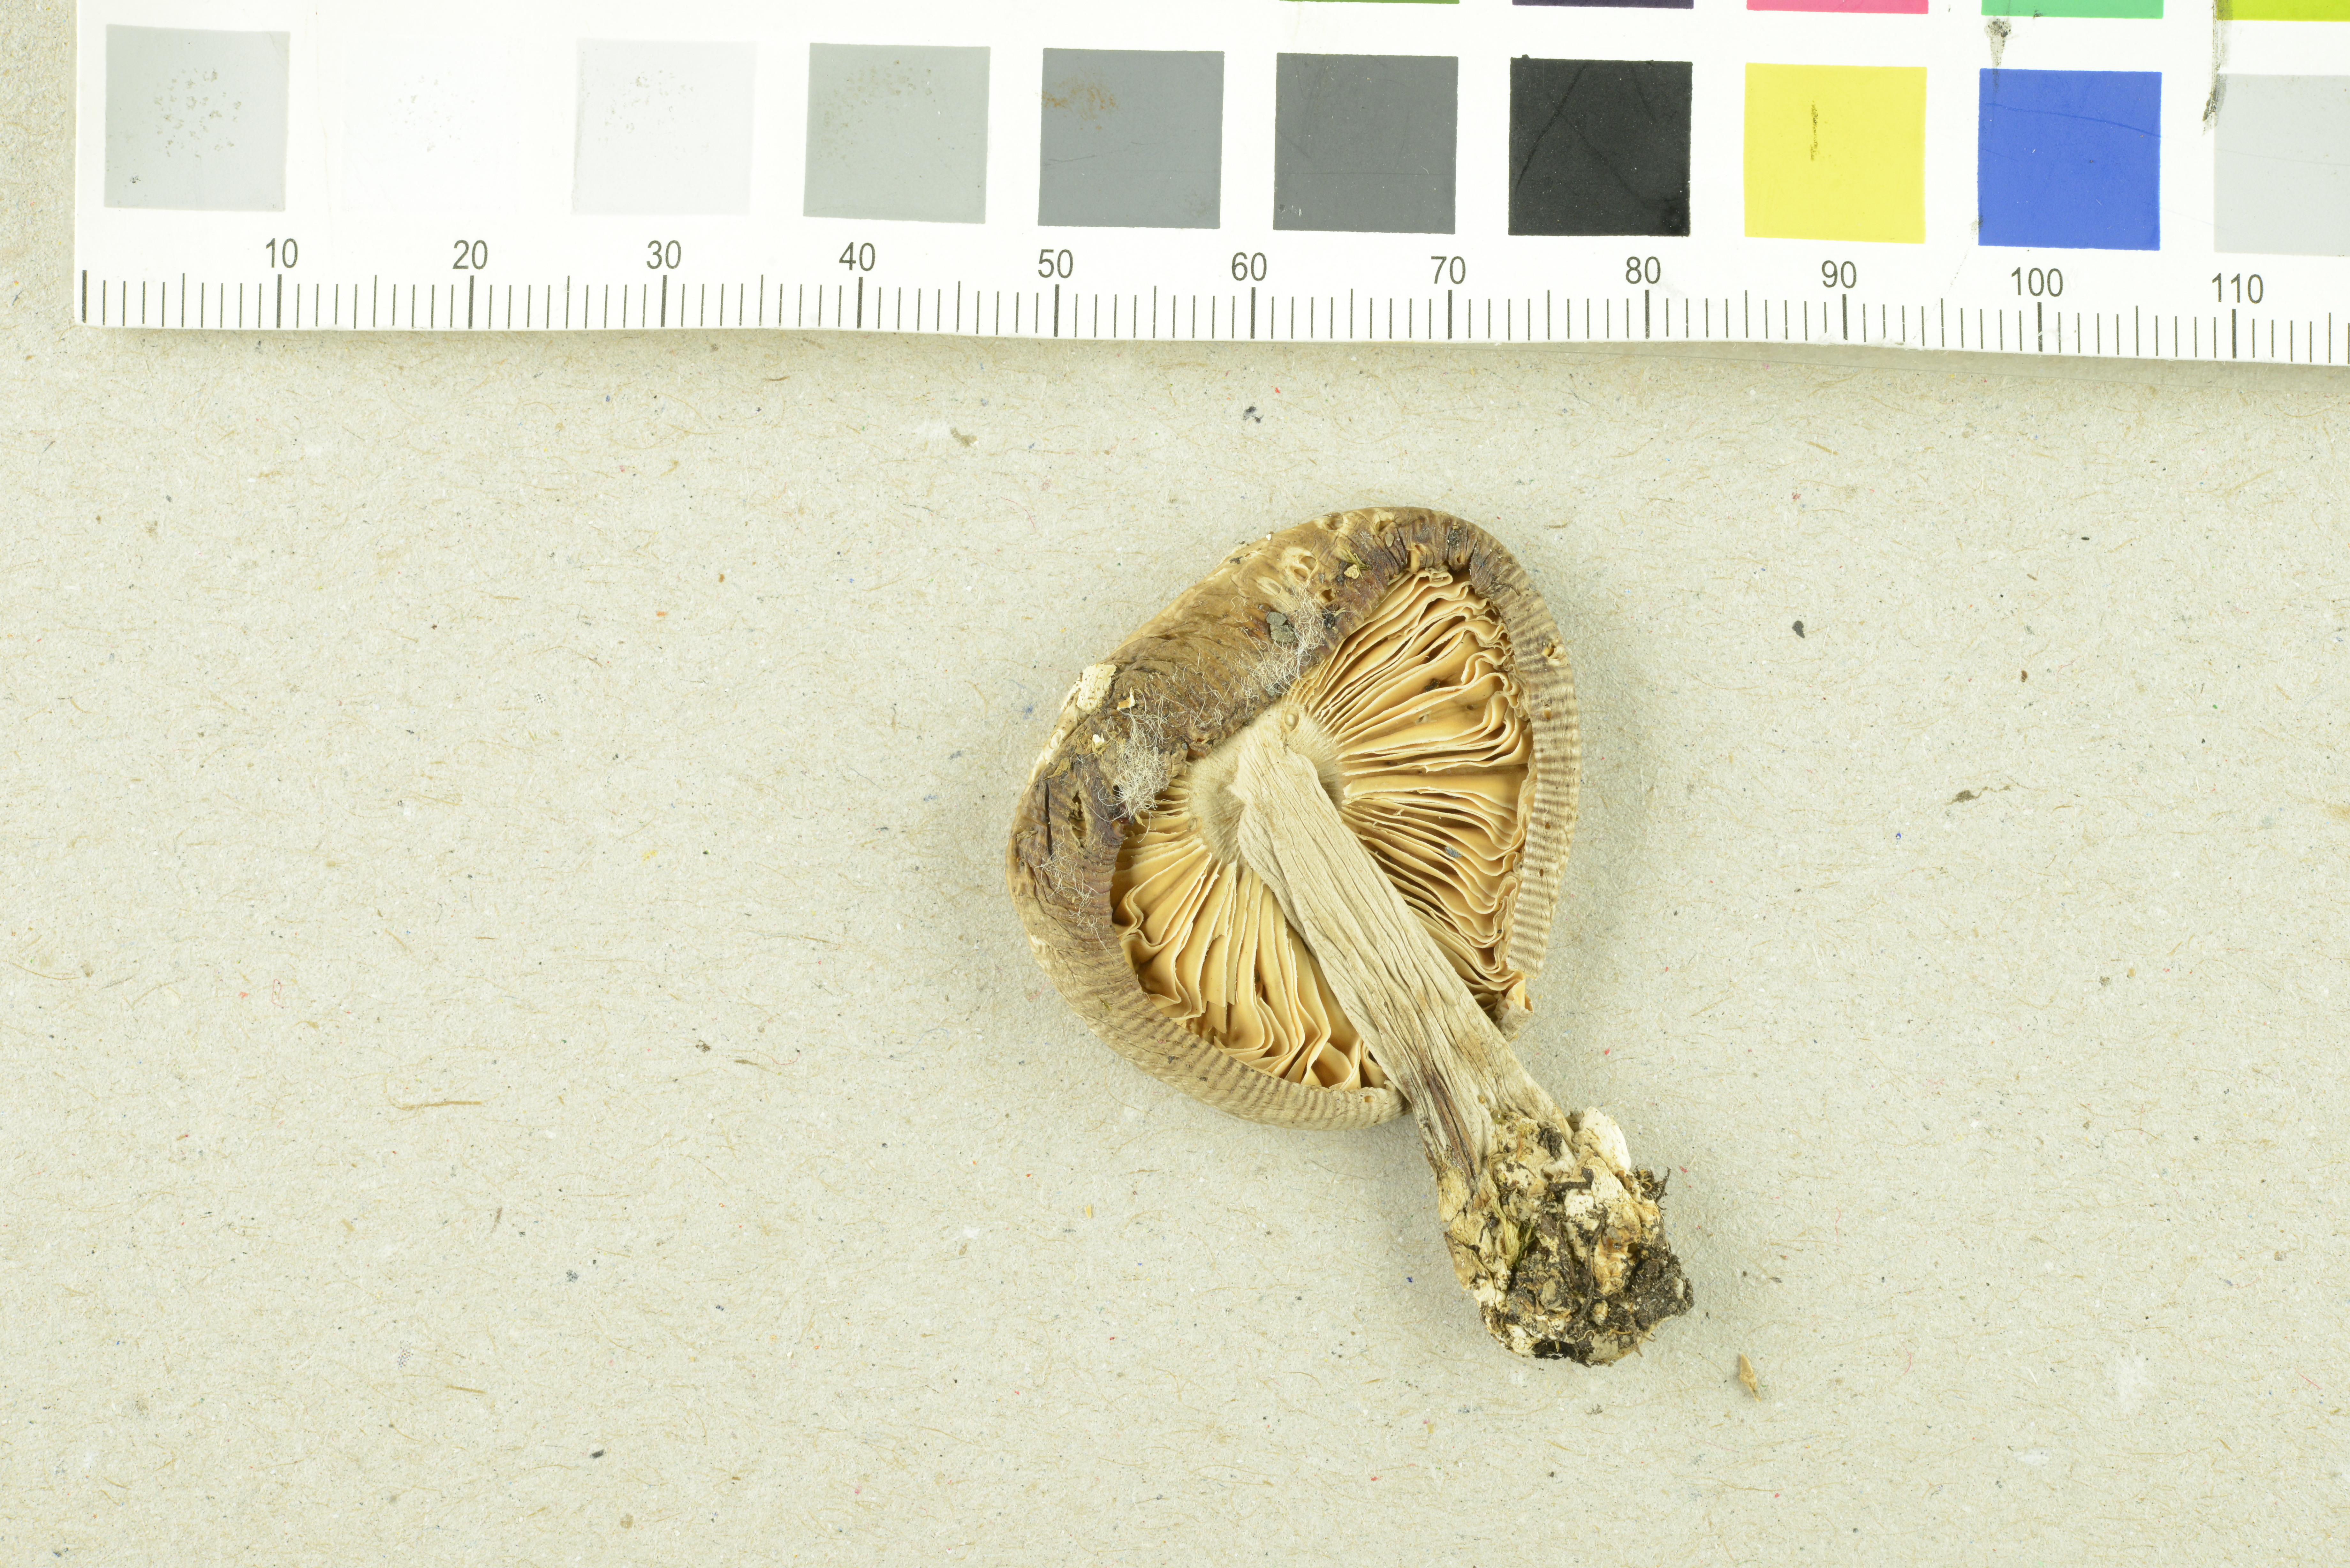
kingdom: Fungi
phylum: Basidiomycota
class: Agaricomycetes
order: Agaricales
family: Amanitaceae
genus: Amanita
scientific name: Amanita nivalis
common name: Mountain grisette
